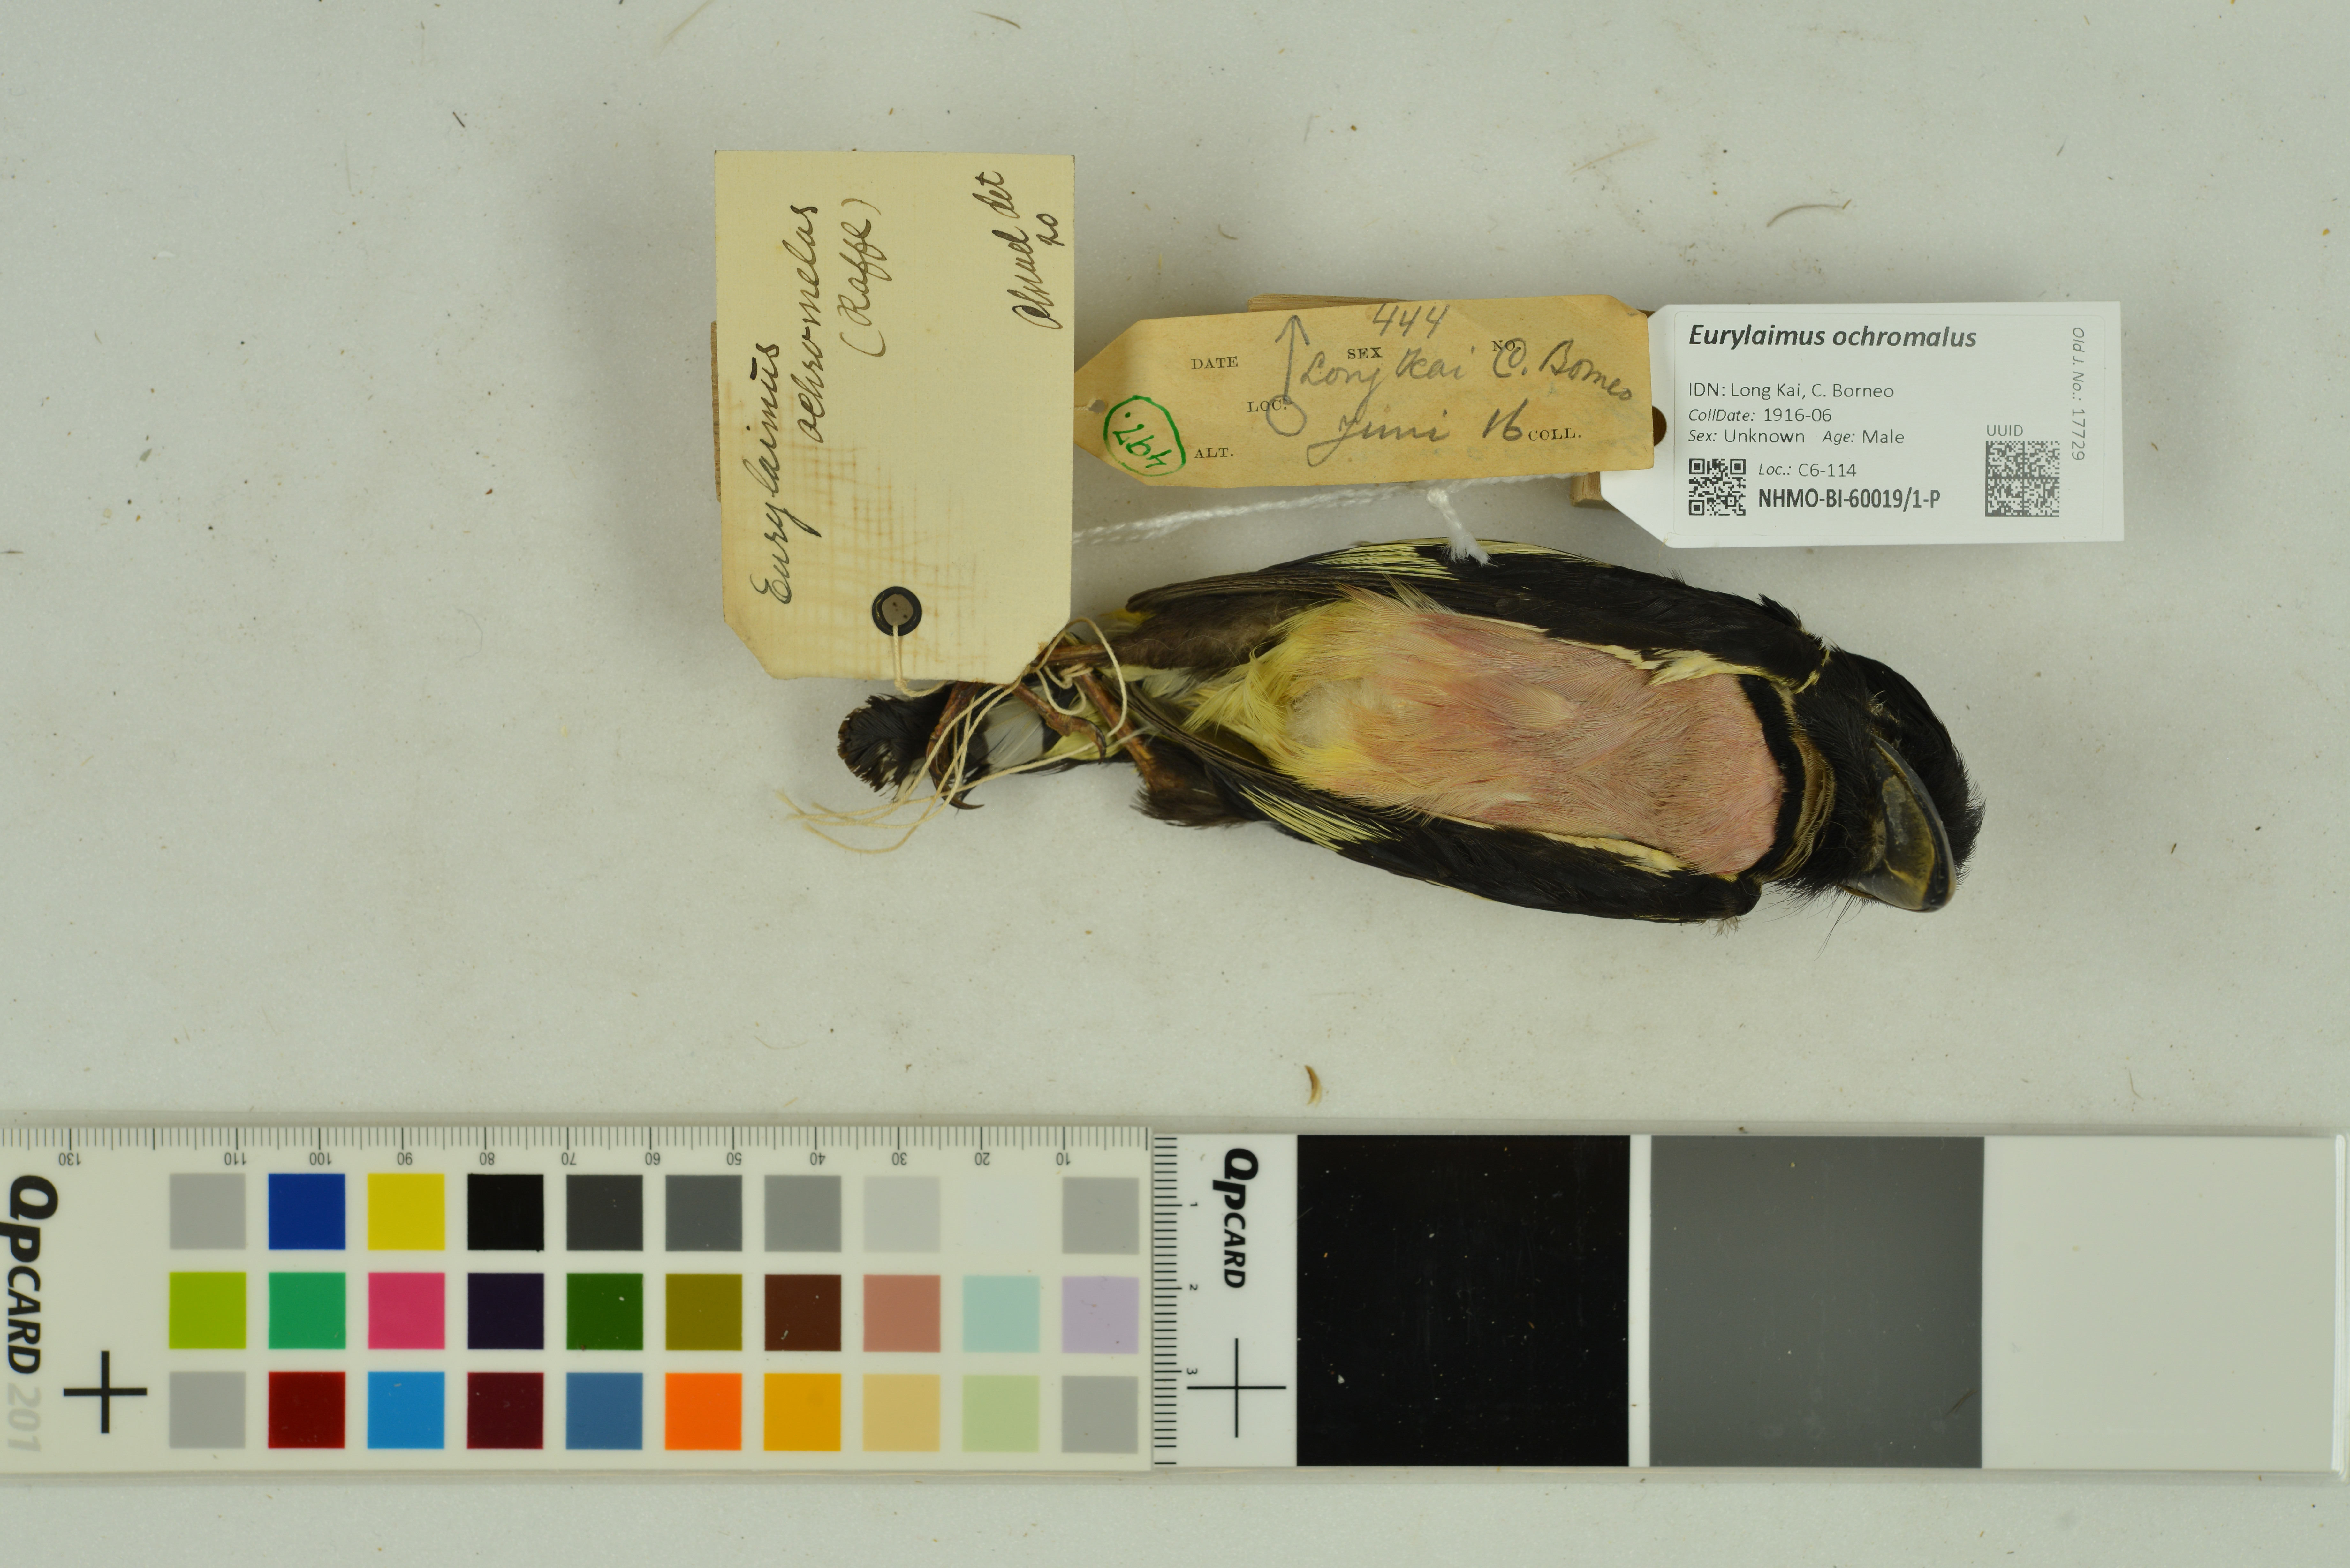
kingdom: Animalia
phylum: Chordata
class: Aves
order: Passeriformes
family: Eurylaimidae
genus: Eurylaimus
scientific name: Eurylaimus ochromalus
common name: Black-and-yellow broadbill
